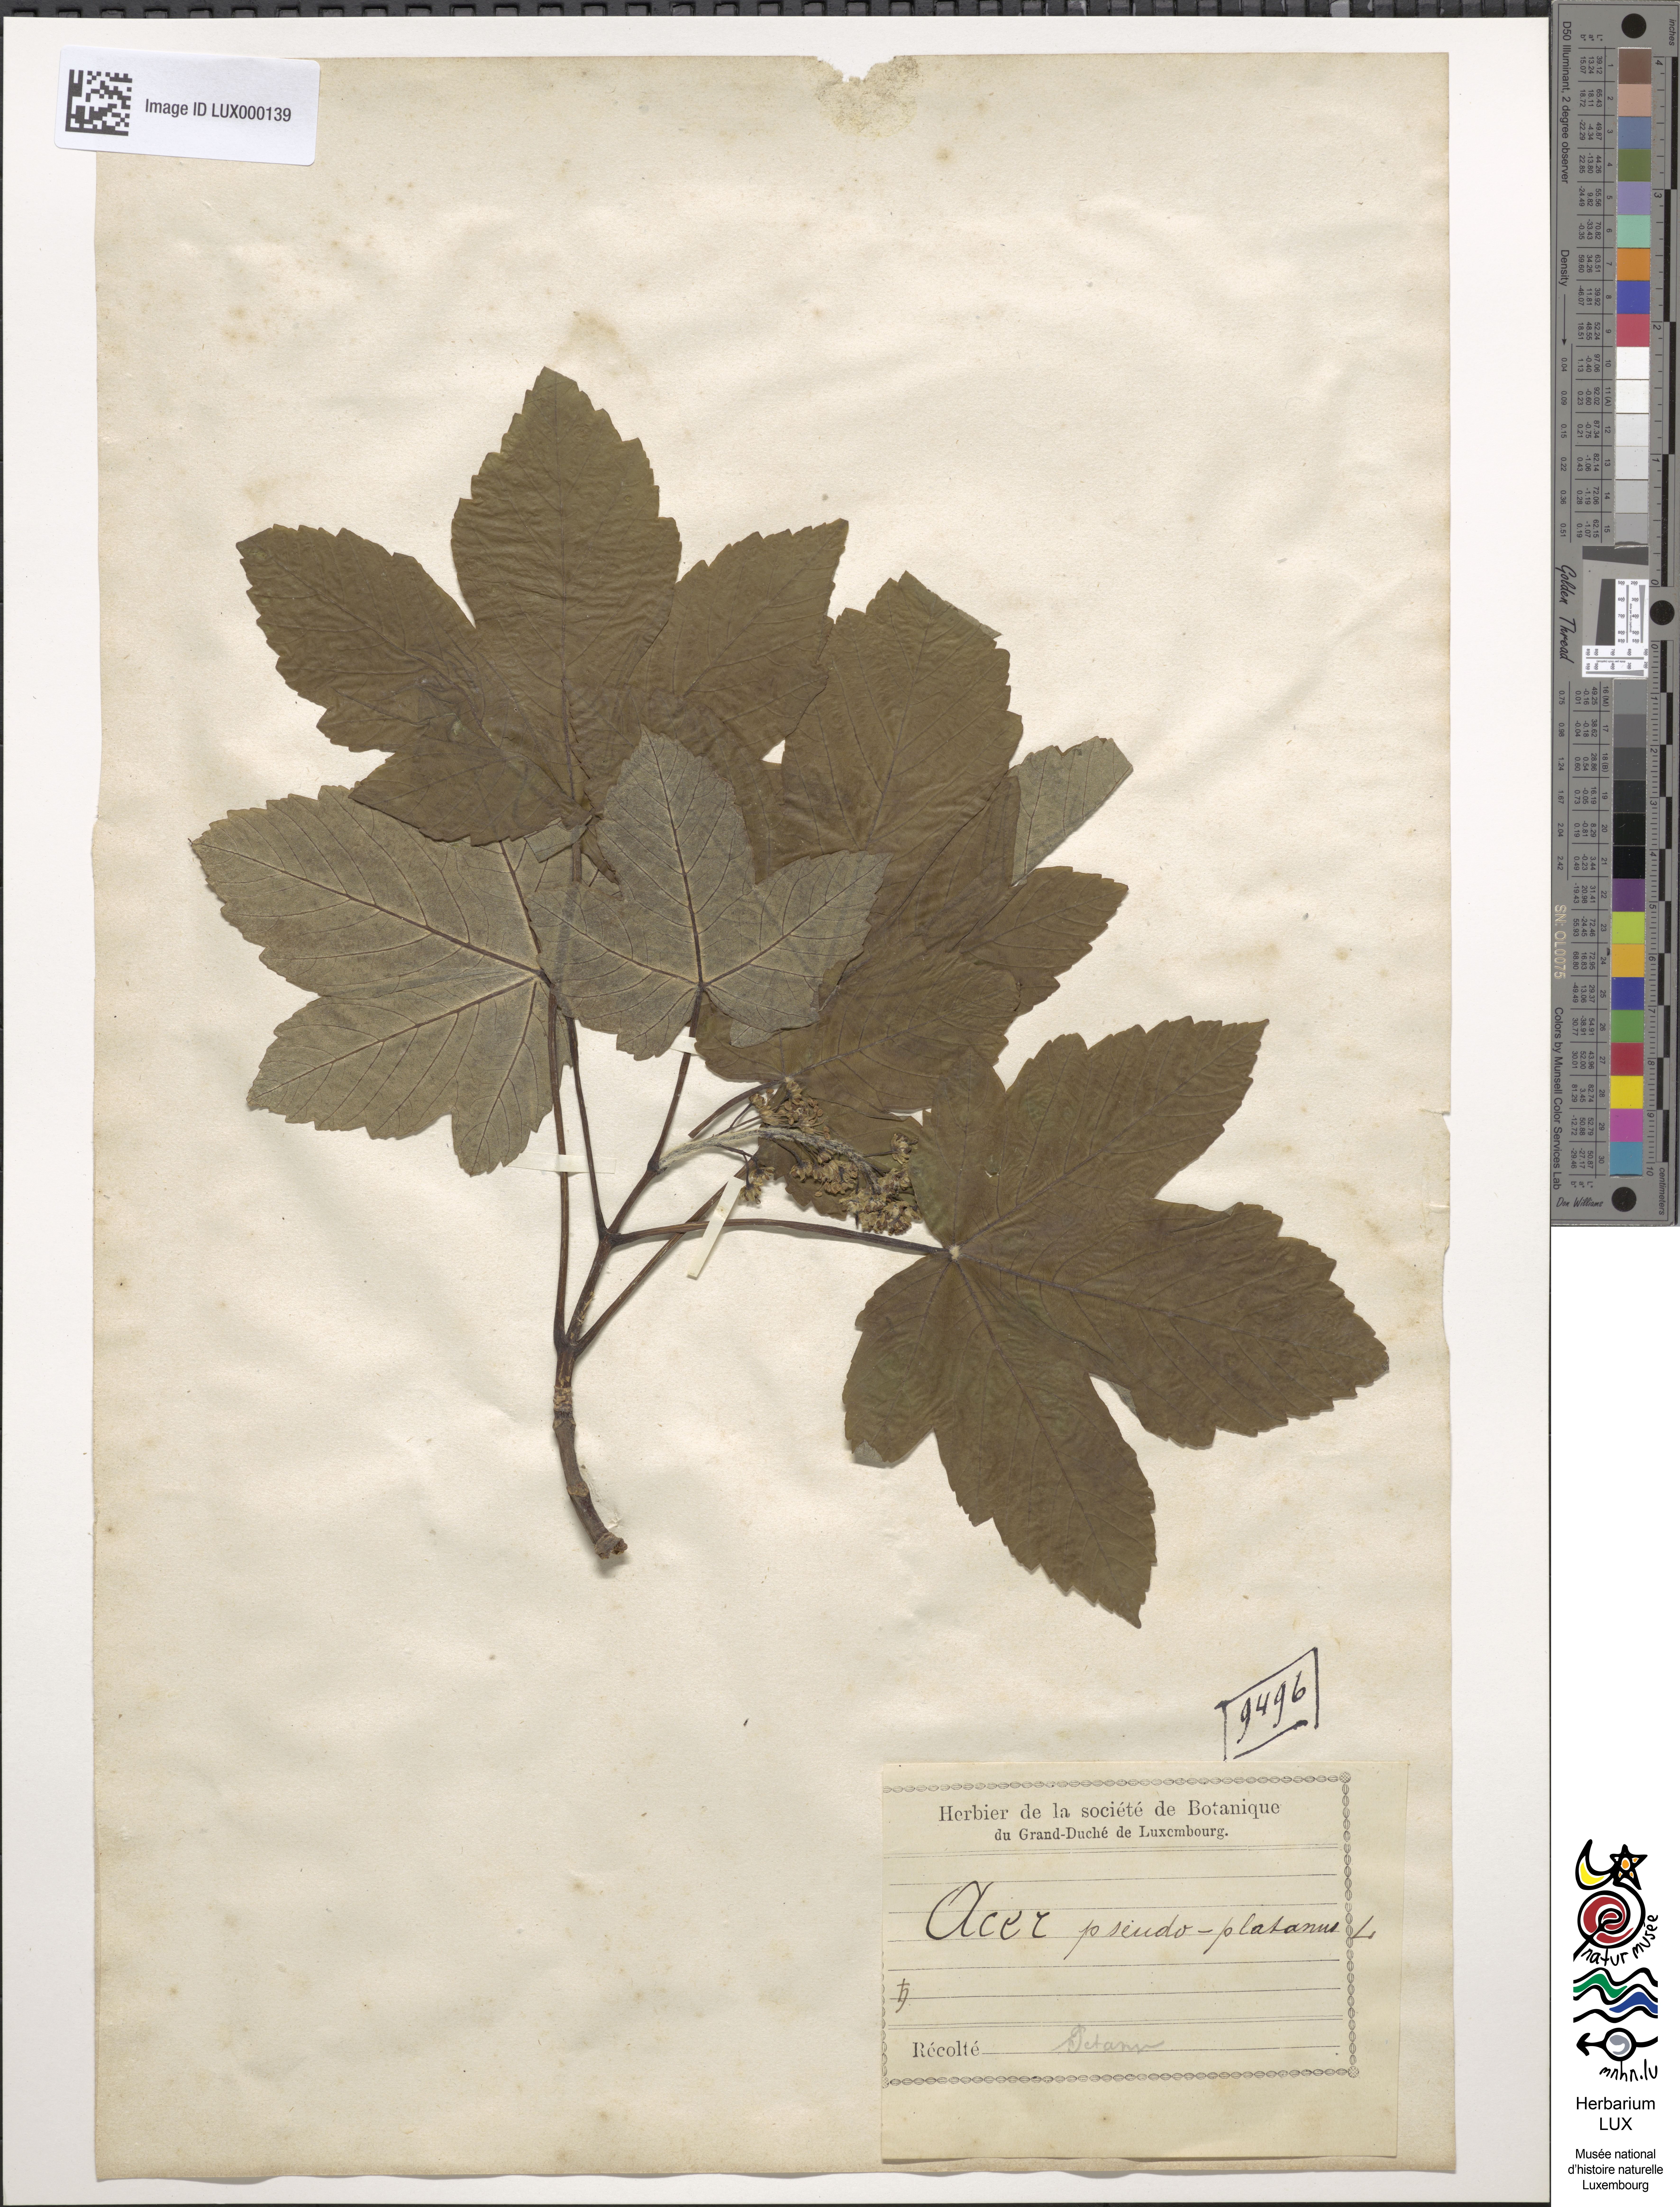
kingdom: Plantae
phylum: Tracheophyta
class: Magnoliopsida
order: Sapindales
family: Sapindaceae
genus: Acer
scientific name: Acer pseudoplatanus
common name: Sycamore
